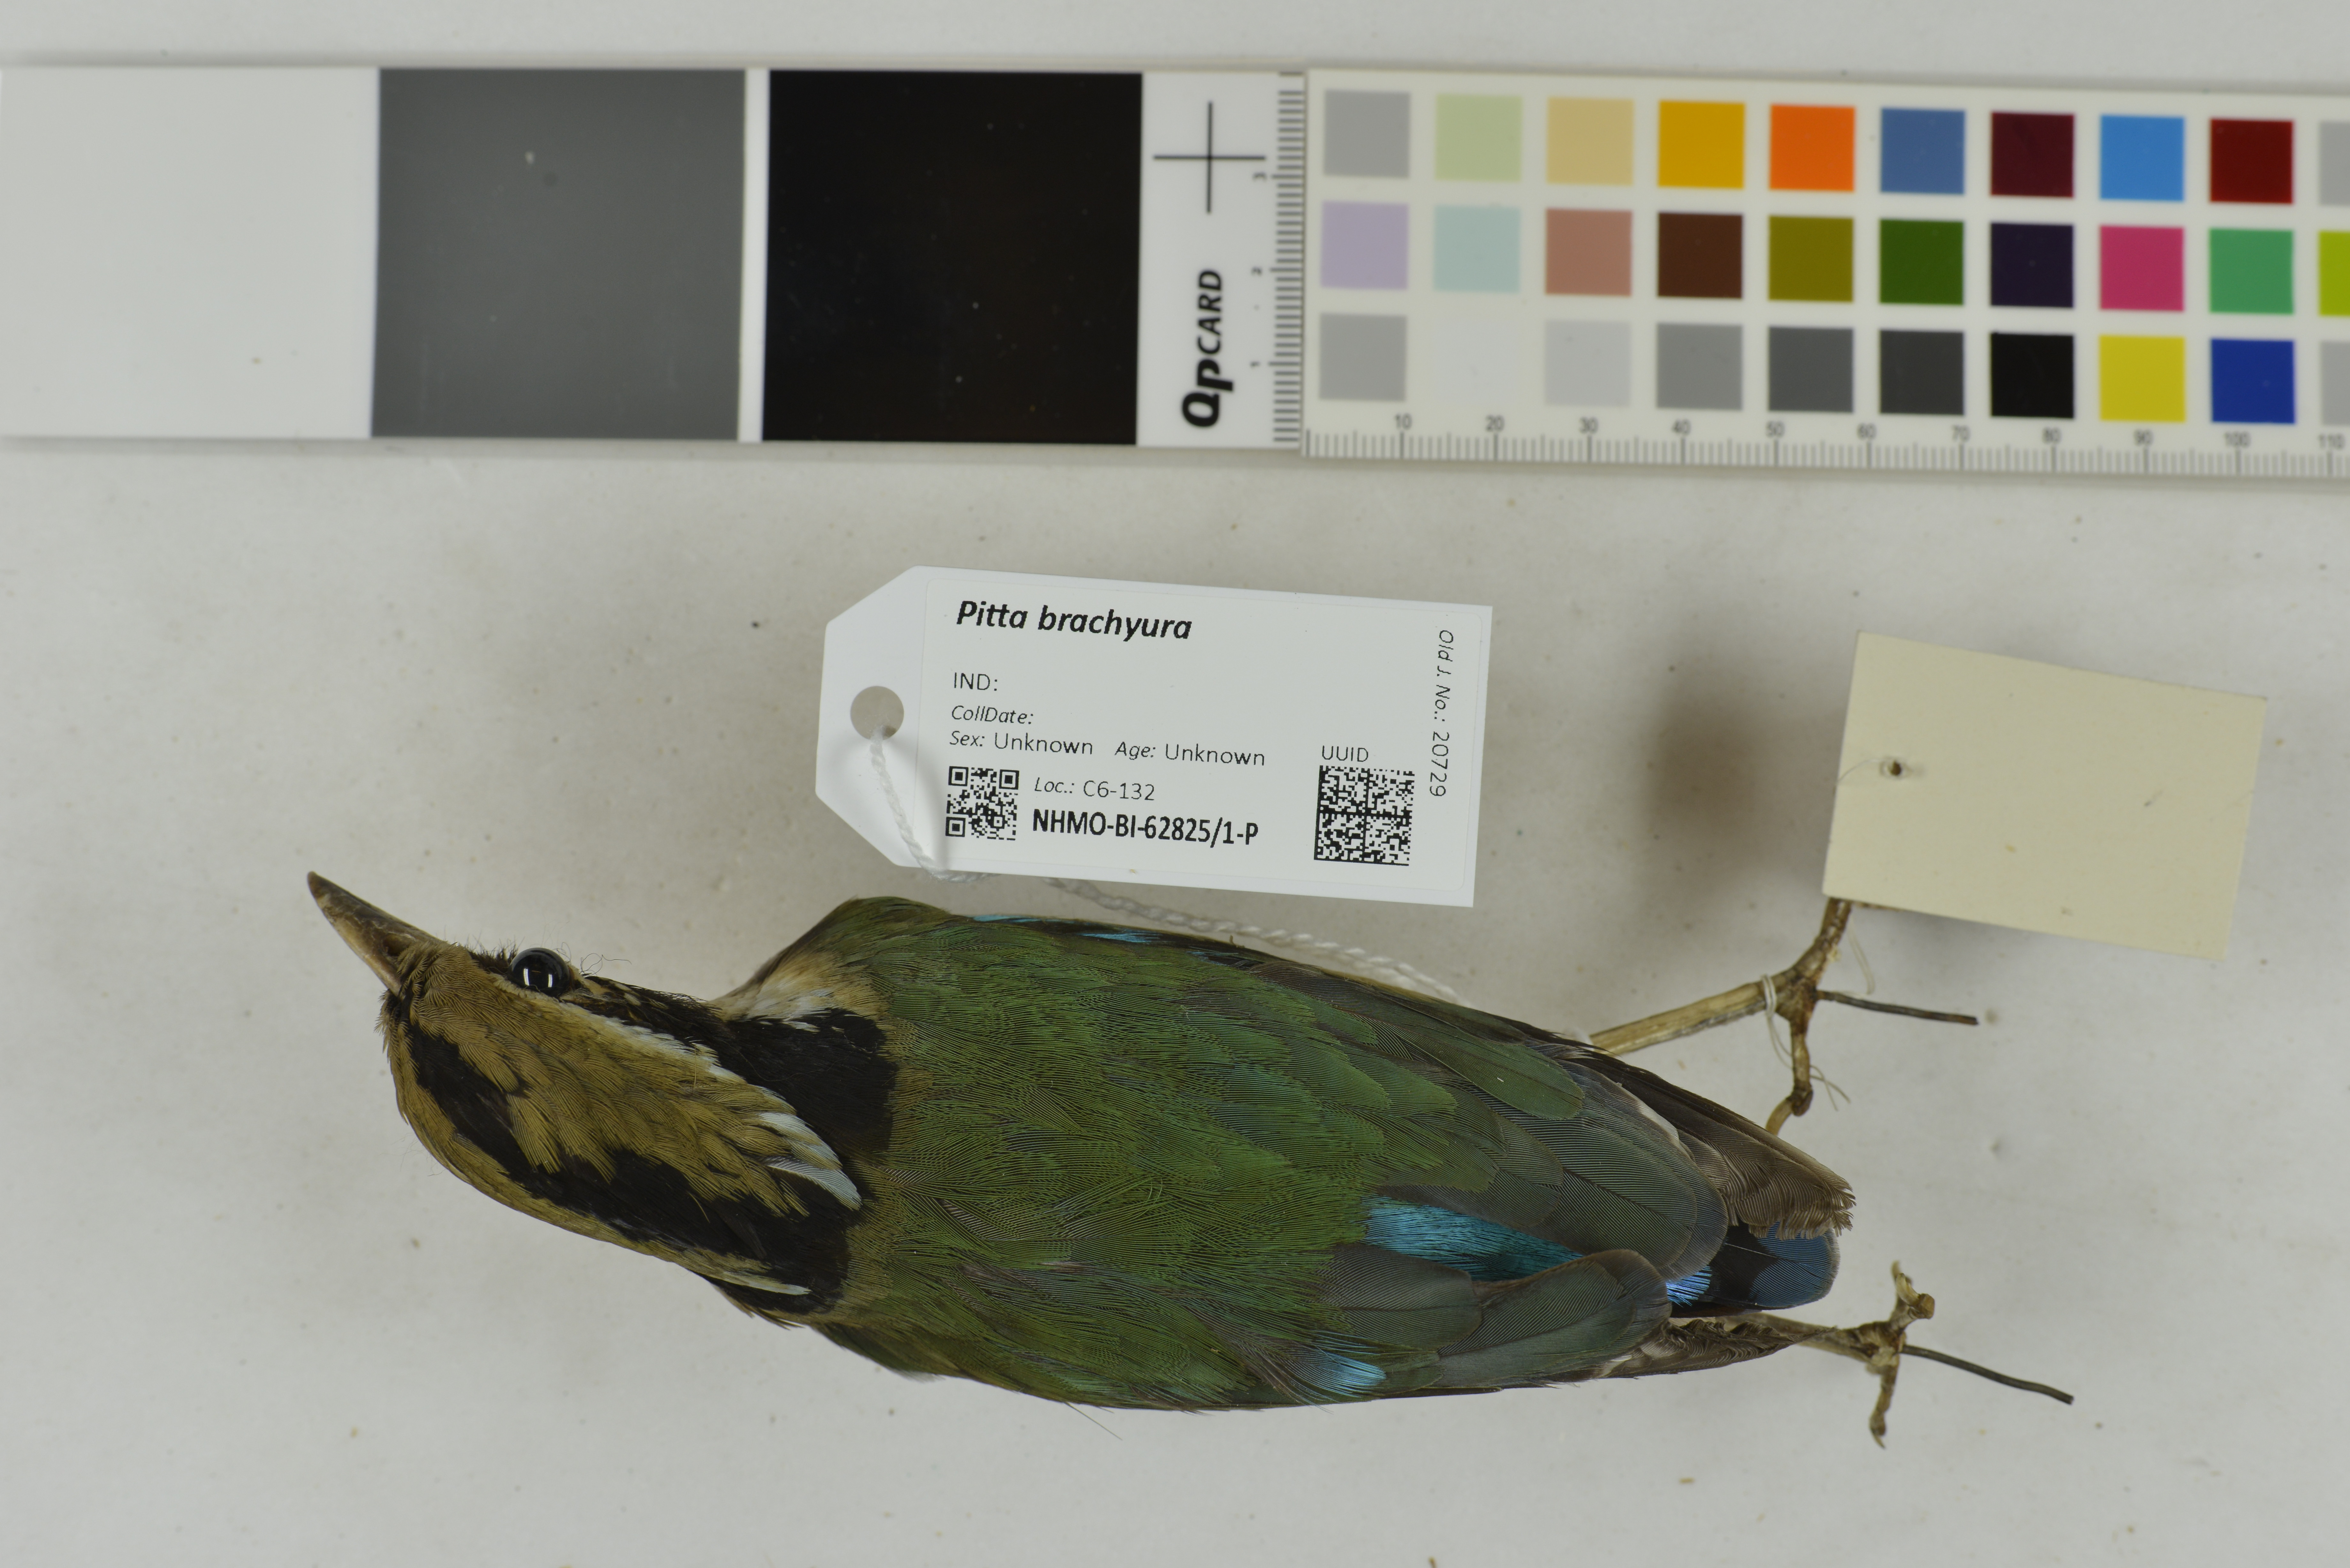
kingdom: Animalia
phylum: Chordata
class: Aves
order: Passeriformes
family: Pittidae
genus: Pitta
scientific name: Pitta brachyura
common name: Indian pitta
